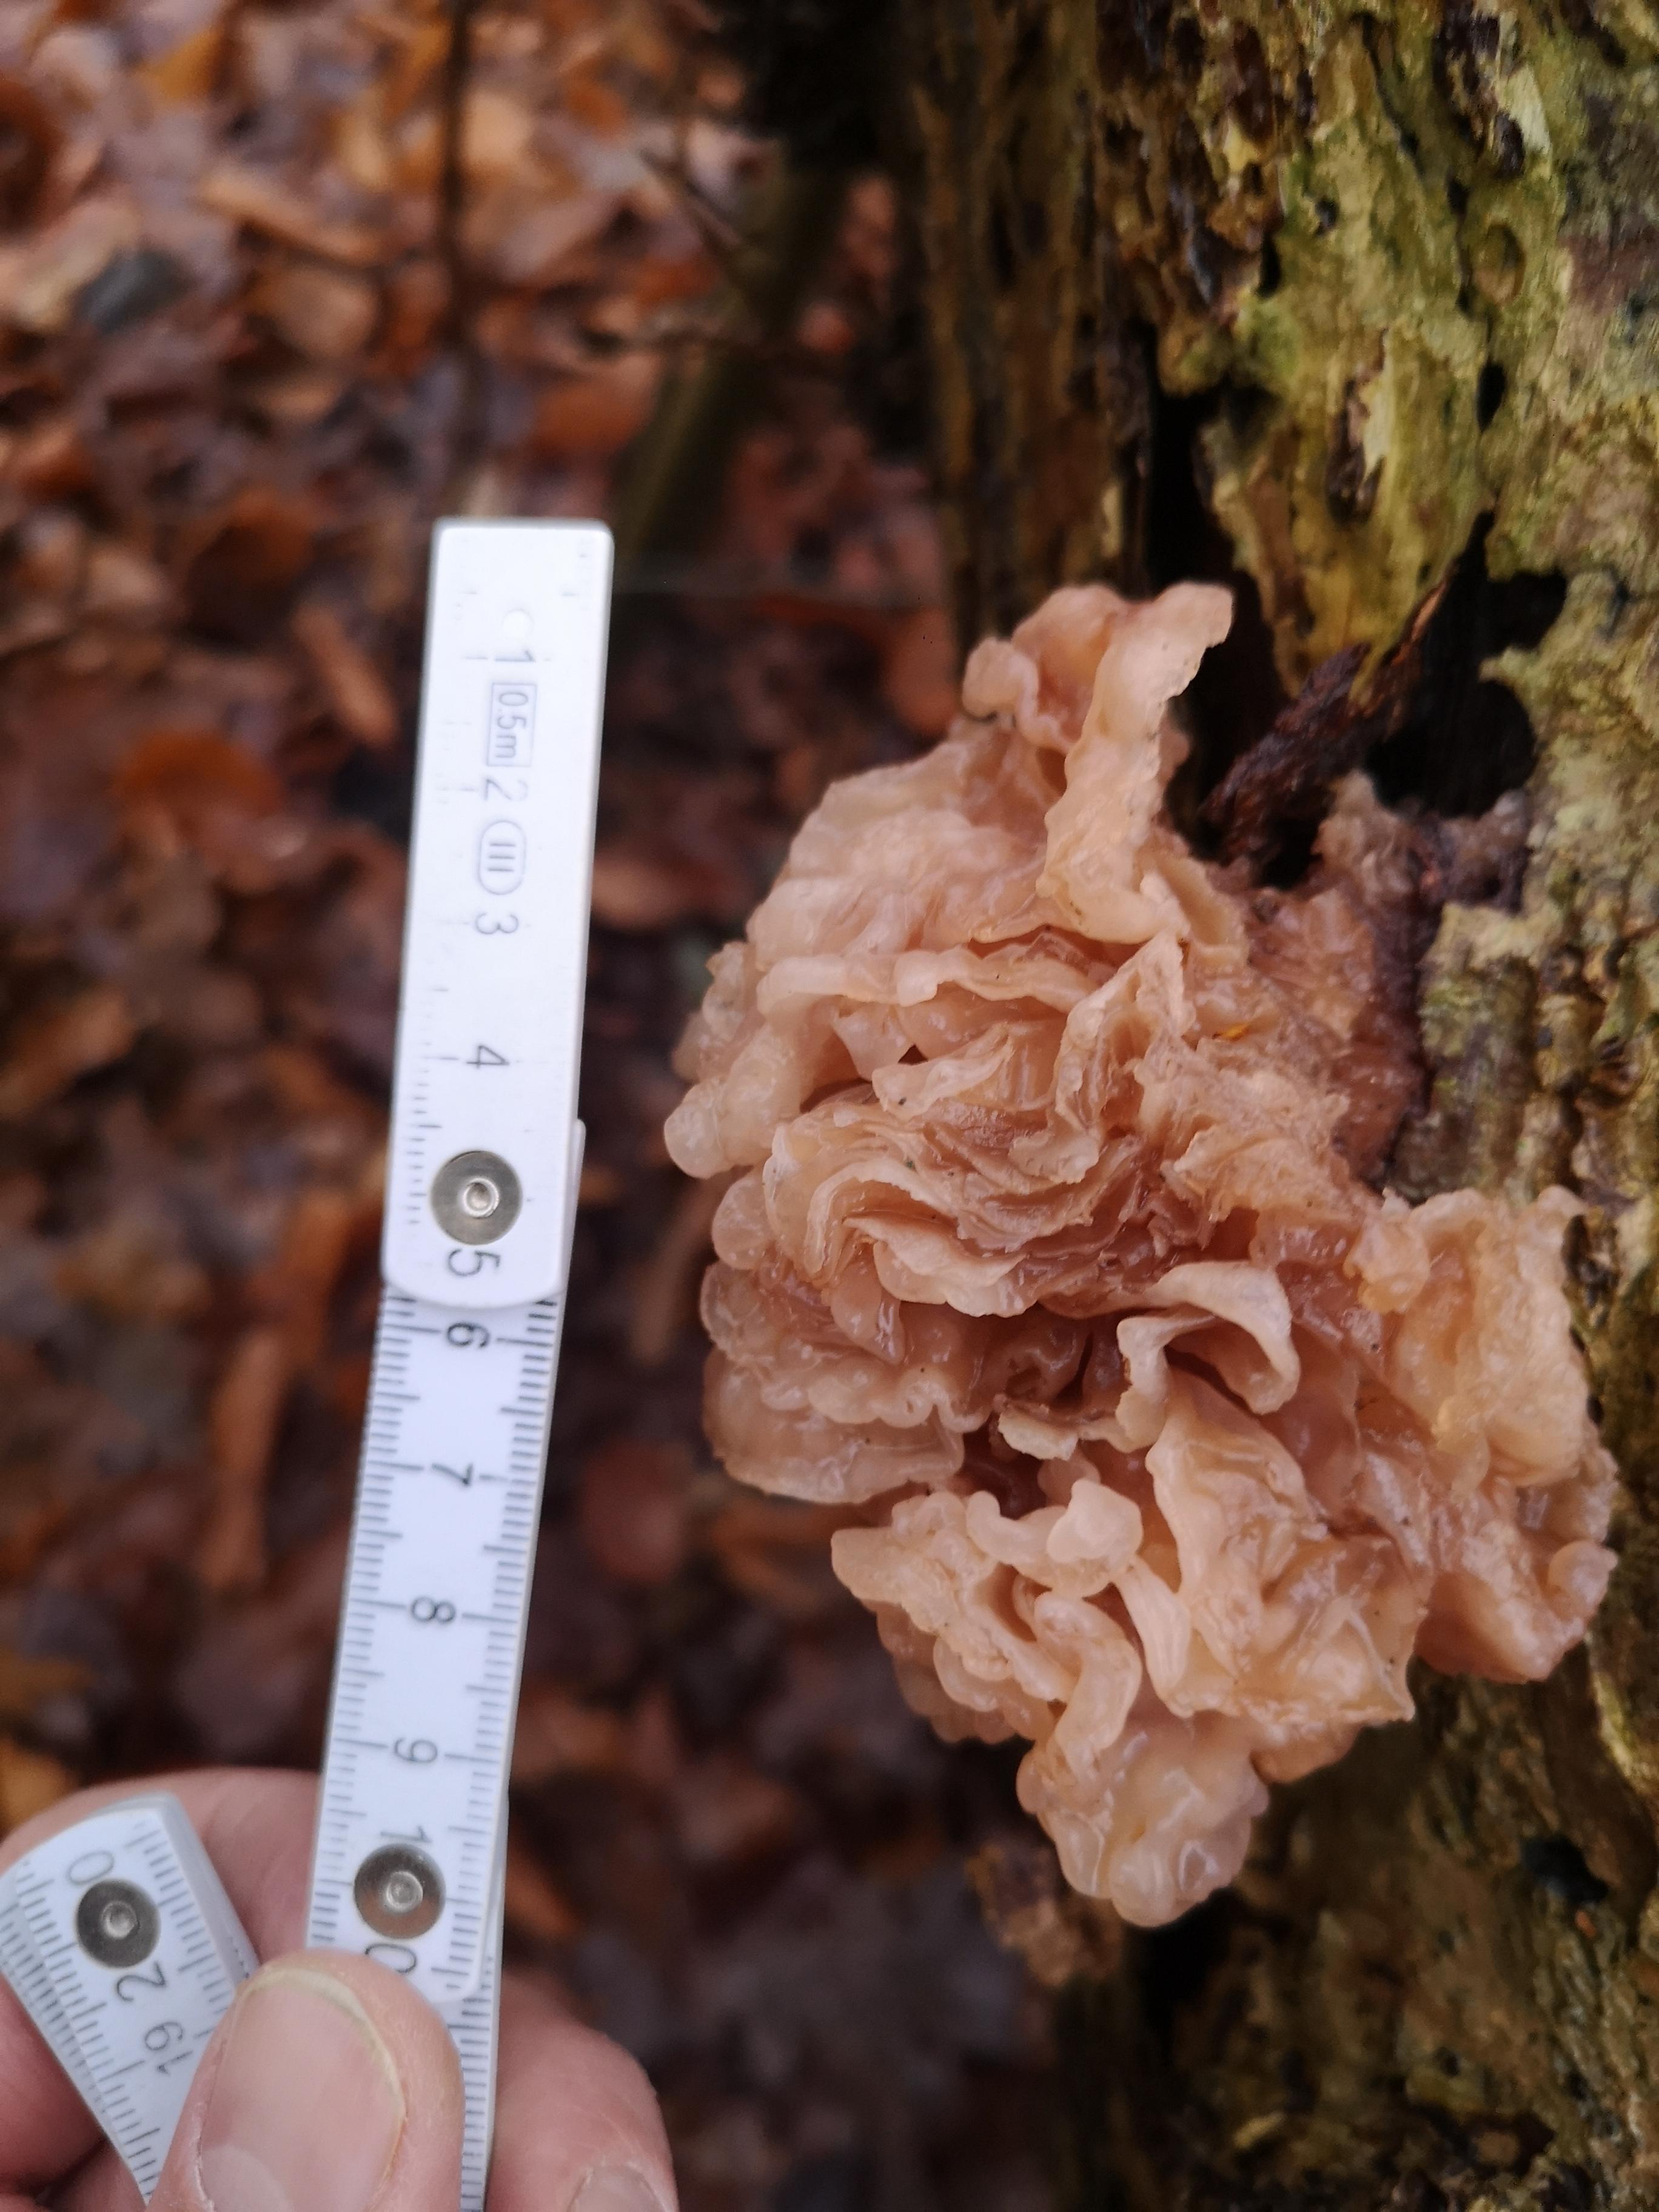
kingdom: Fungi
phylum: Basidiomycota
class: Tremellomycetes
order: Tremellales
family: Tremellaceae
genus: Phaeotremella
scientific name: Phaeotremella frondosa
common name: kæmpe-bævresvamp
